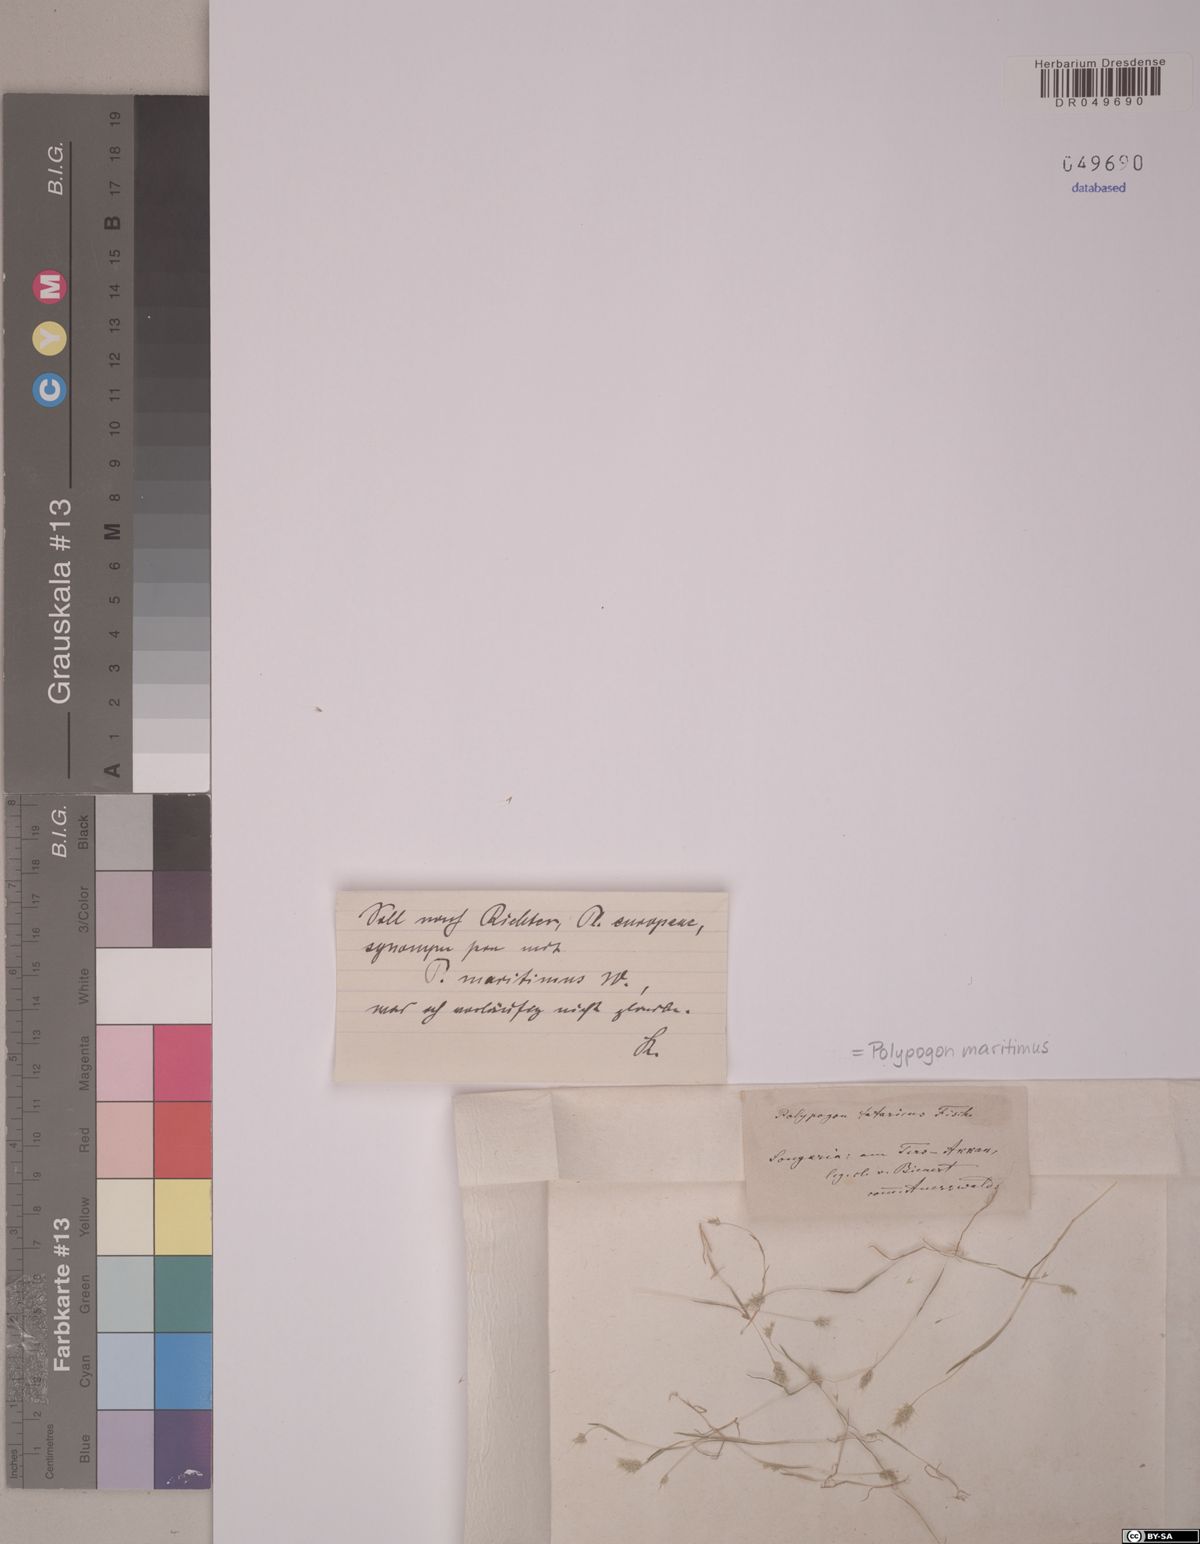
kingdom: Plantae
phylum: Tracheophyta
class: Liliopsida
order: Poales
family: Poaceae
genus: Polypogon
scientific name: Polypogon maritimus
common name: Mediterranean rabbitsfoot grass
